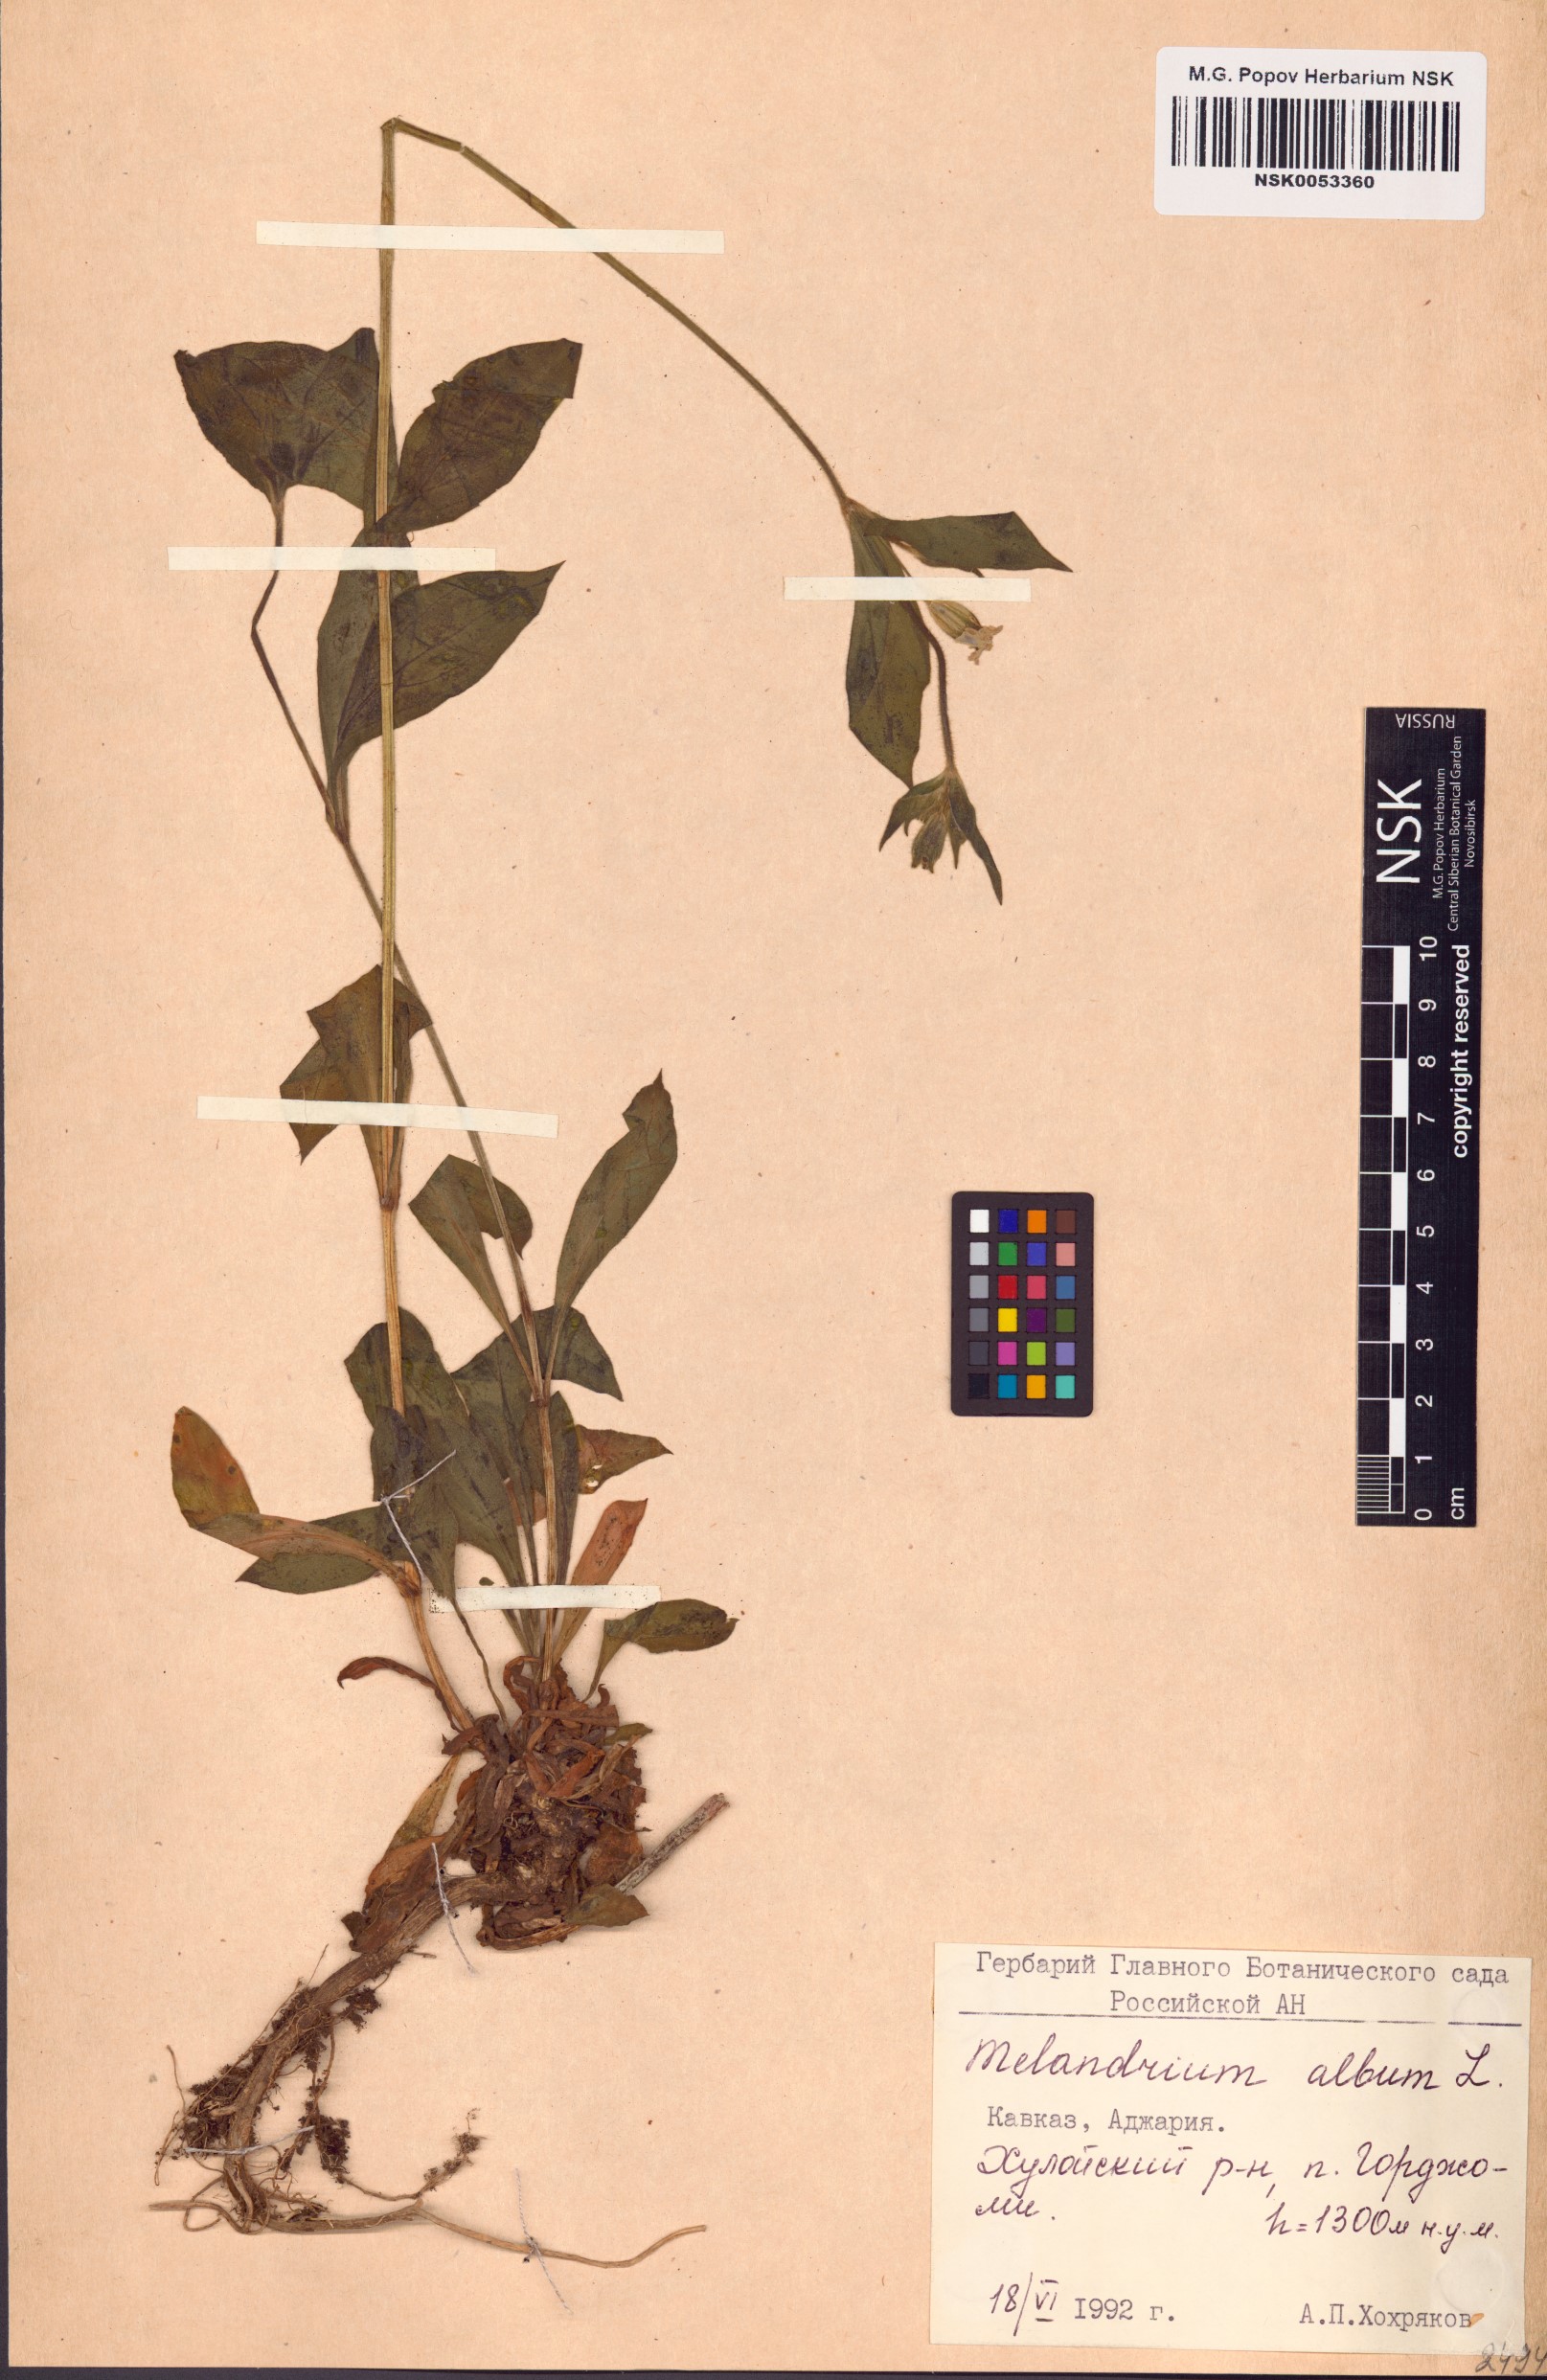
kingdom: Plantae
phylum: Tracheophyta
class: Magnoliopsida
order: Caryophyllales
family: Caryophyllaceae
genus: Silene
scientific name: Silene latifolia
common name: White campion
